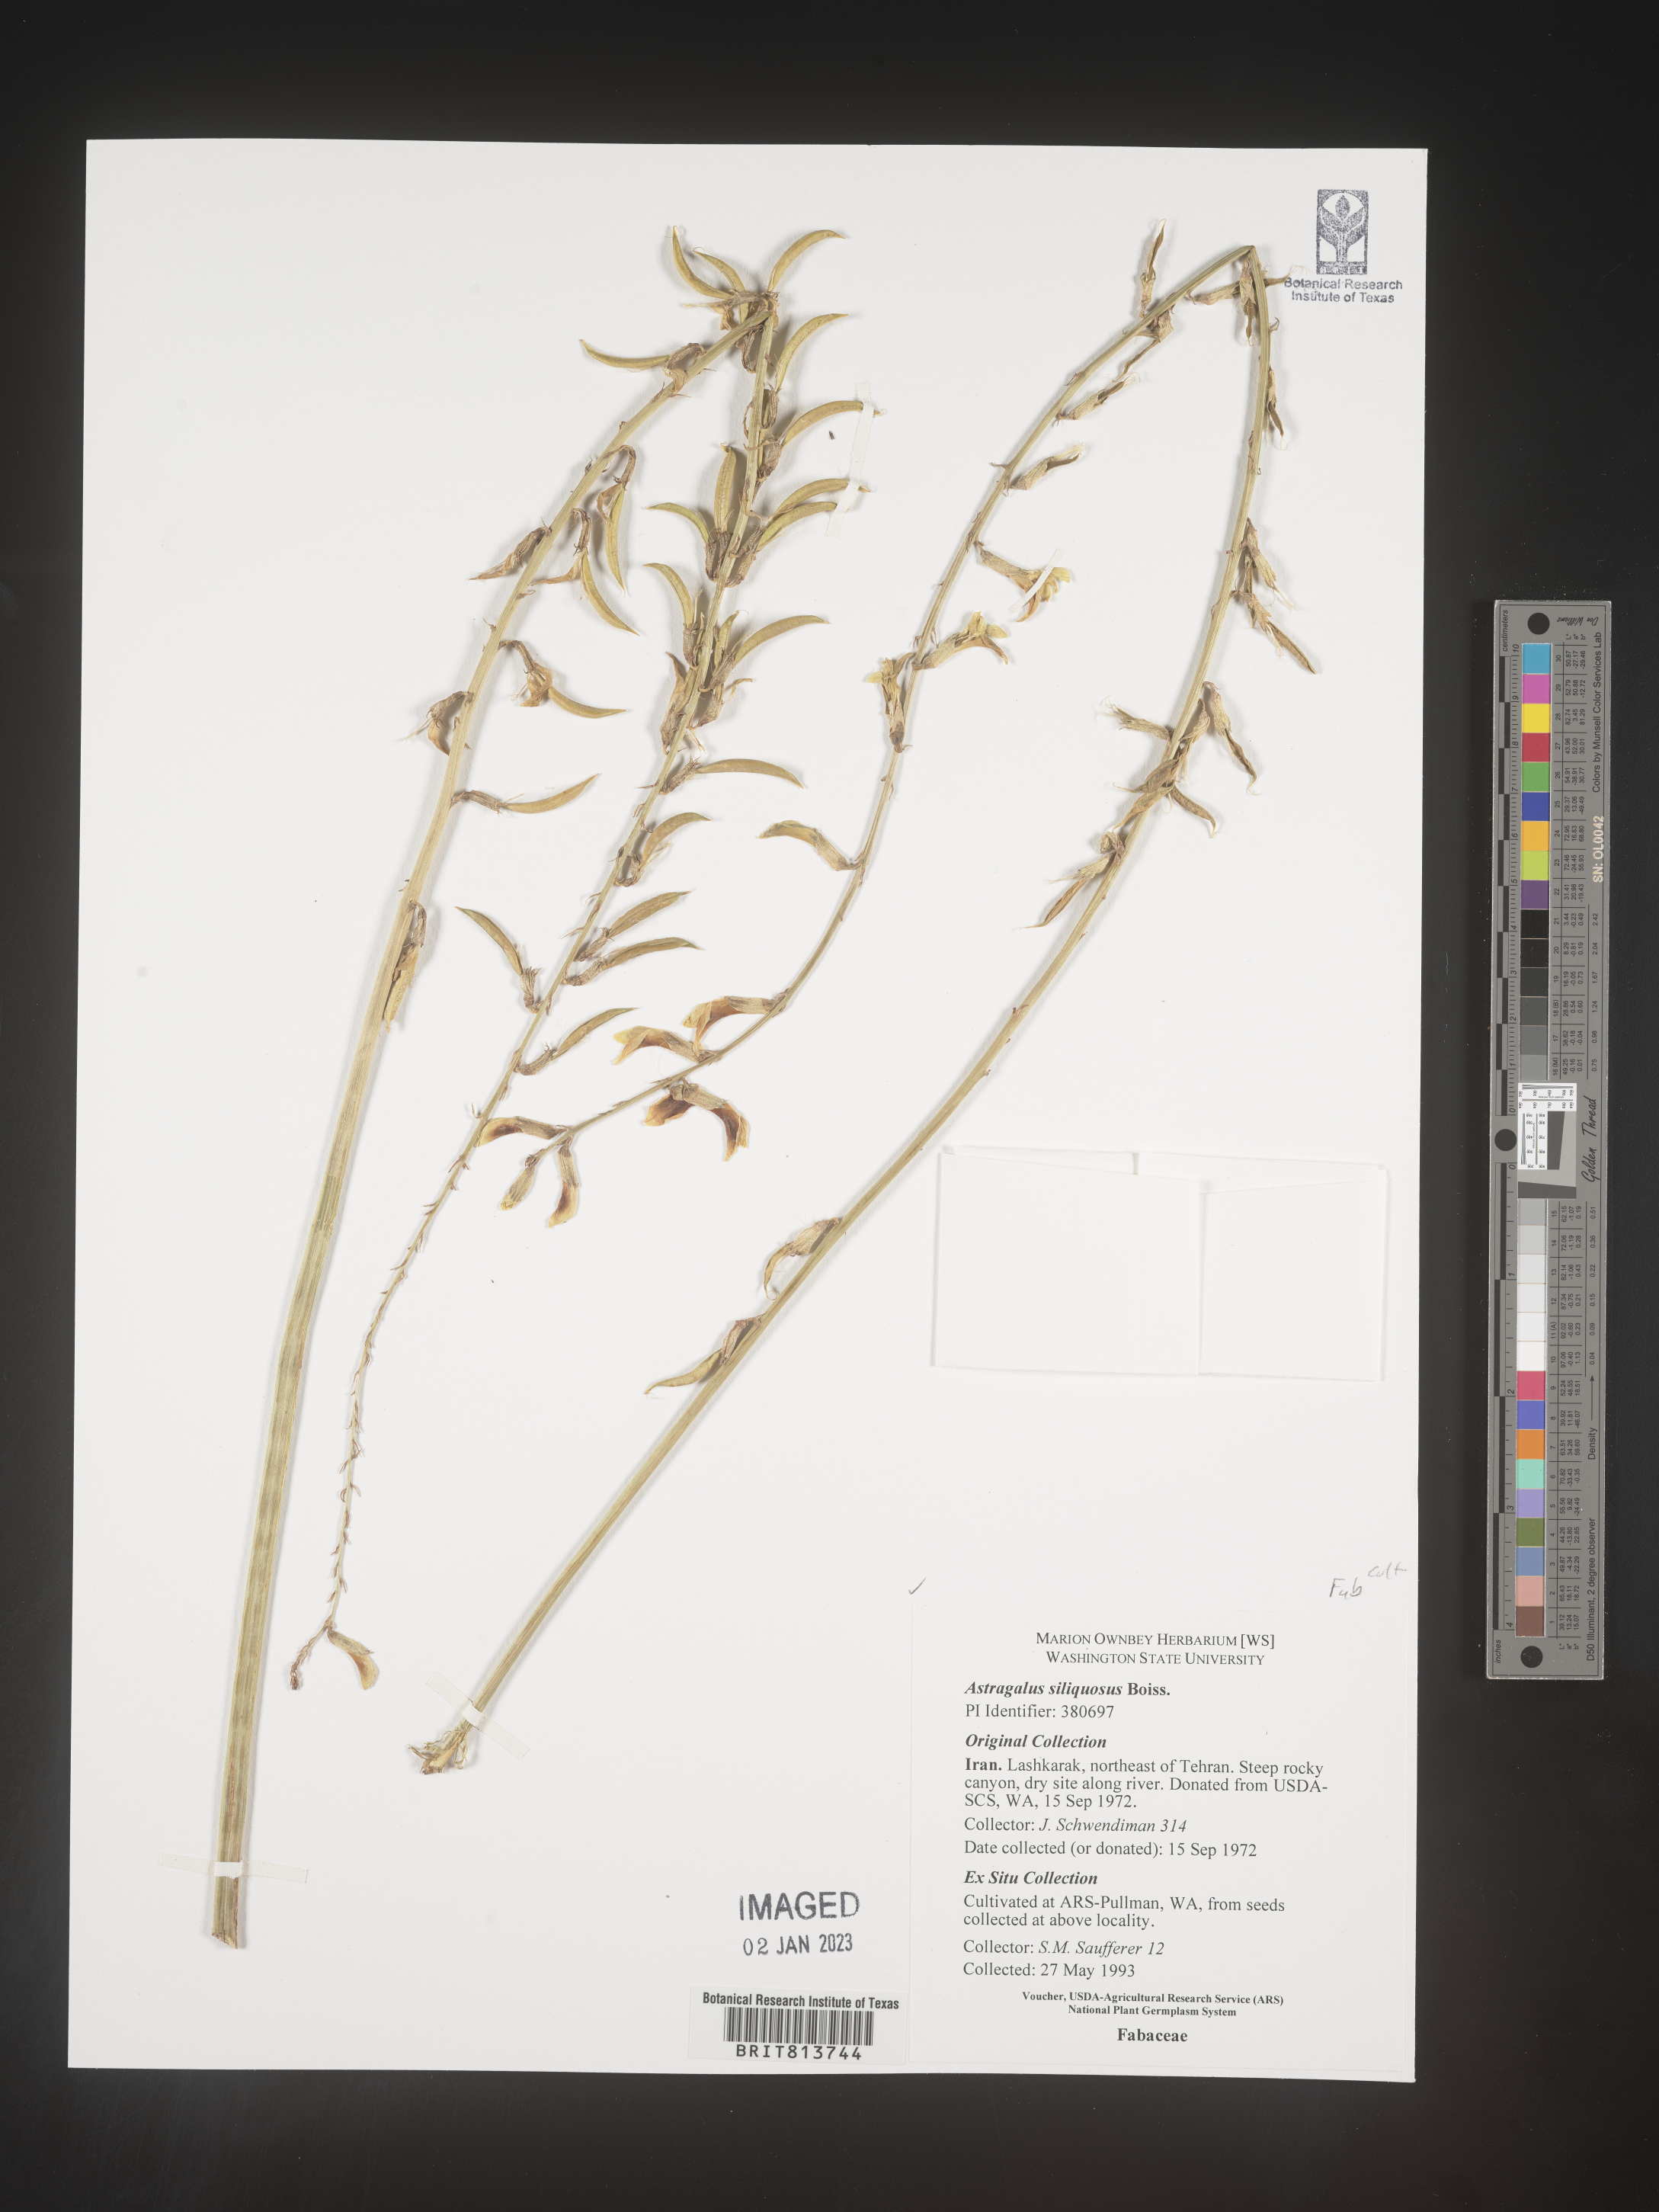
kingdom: Plantae
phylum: Tracheophyta
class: Magnoliopsida
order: Fabales
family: Fabaceae
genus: Astragalus
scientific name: Astragalus
